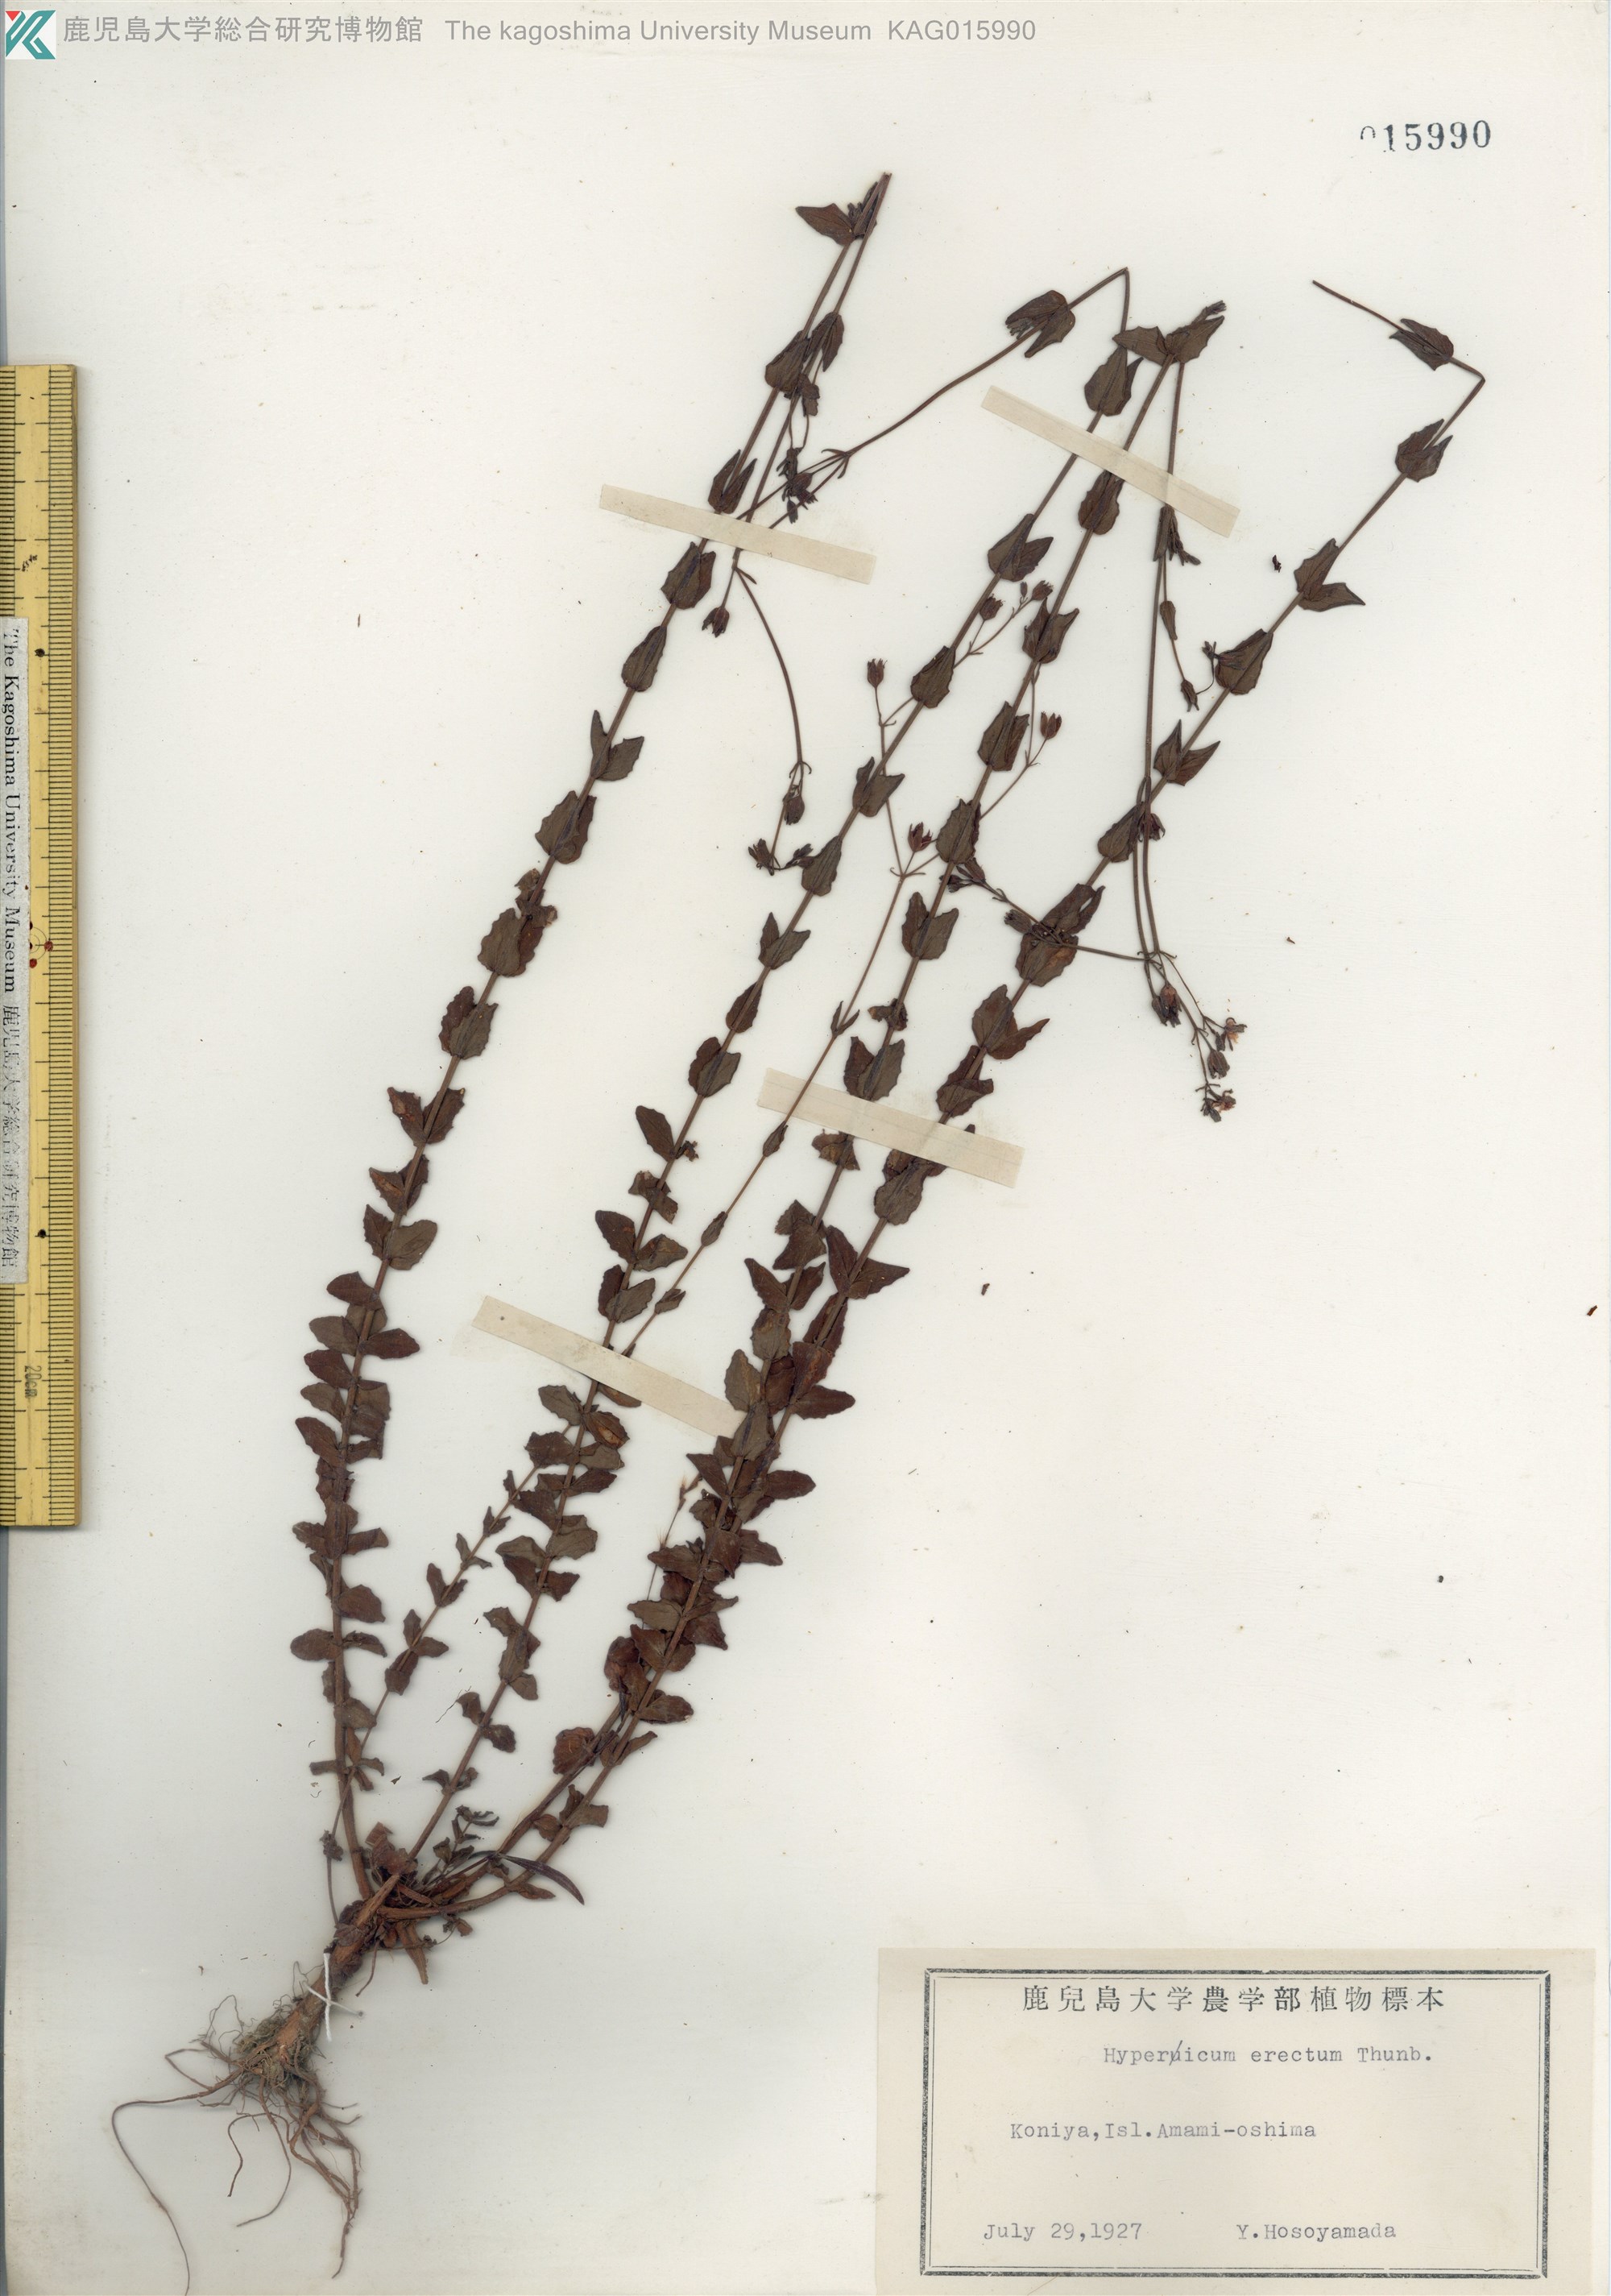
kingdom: Plantae
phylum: Tracheophyta
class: Magnoliopsida
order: Malpighiales
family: Hypericaceae
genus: Hypericum
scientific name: Hypericum japonicum
